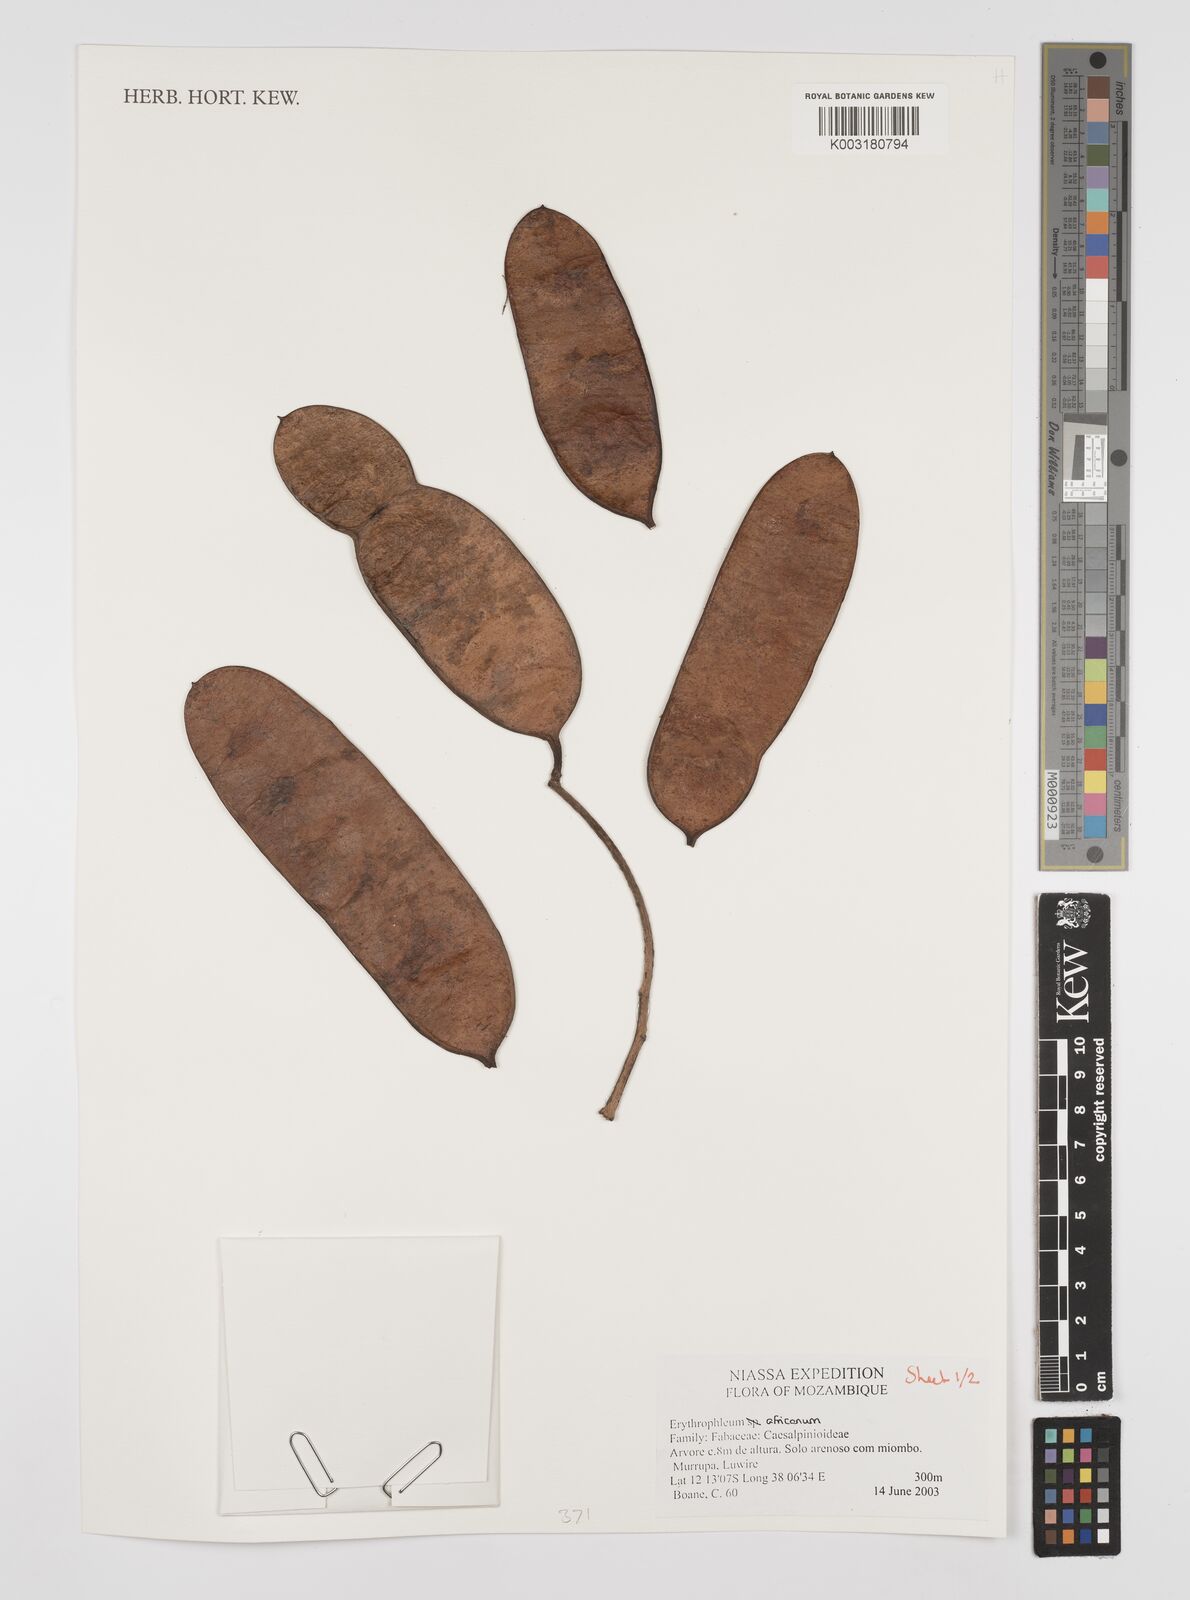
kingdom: Plantae
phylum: Tracheophyta
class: Magnoliopsida
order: Fabales
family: Fabaceae
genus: Peltophorum
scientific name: Peltophorum africanum
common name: African black wattle
